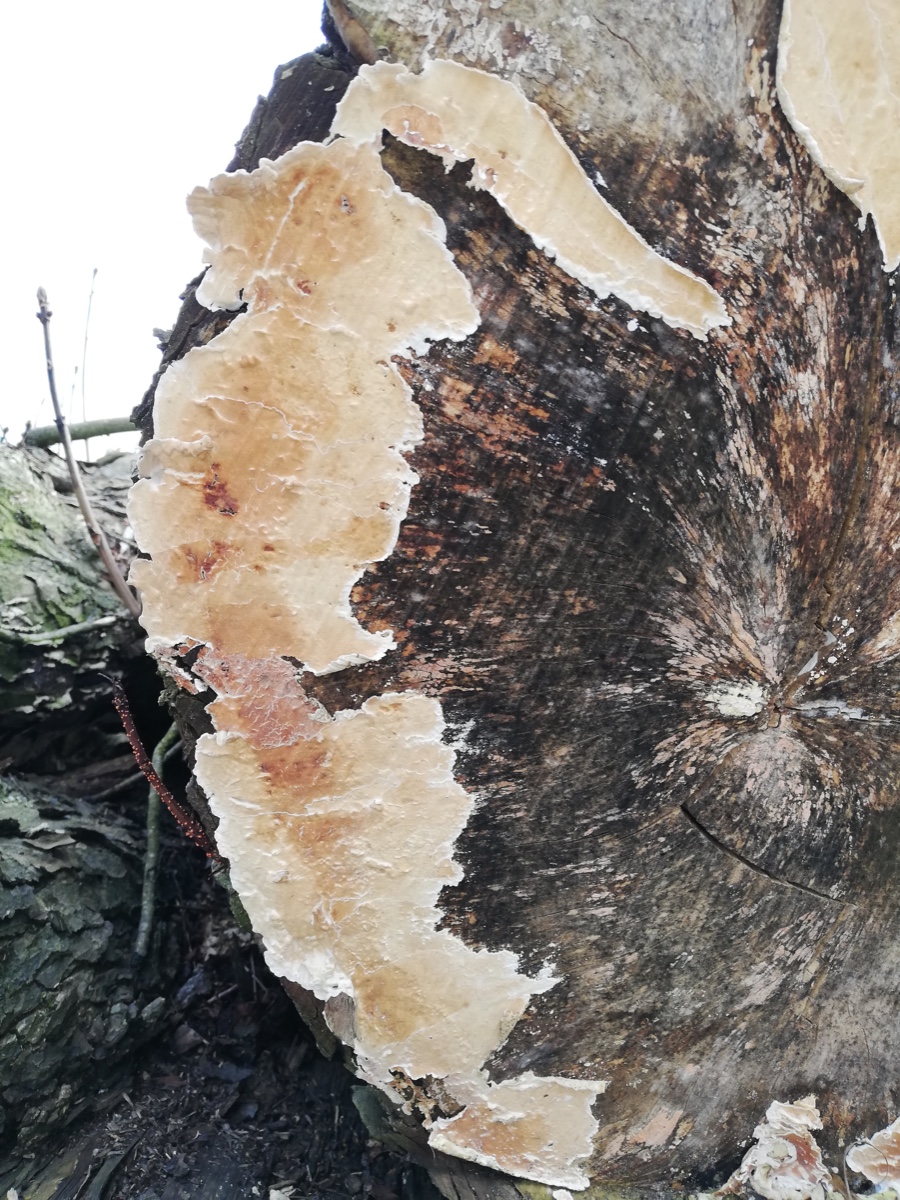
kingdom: Fungi
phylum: Basidiomycota
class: Agaricomycetes
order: Agaricales
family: Physalacriaceae
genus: Cylindrobasidium
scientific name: Cylindrobasidium evolvens
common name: sprækkehinde
